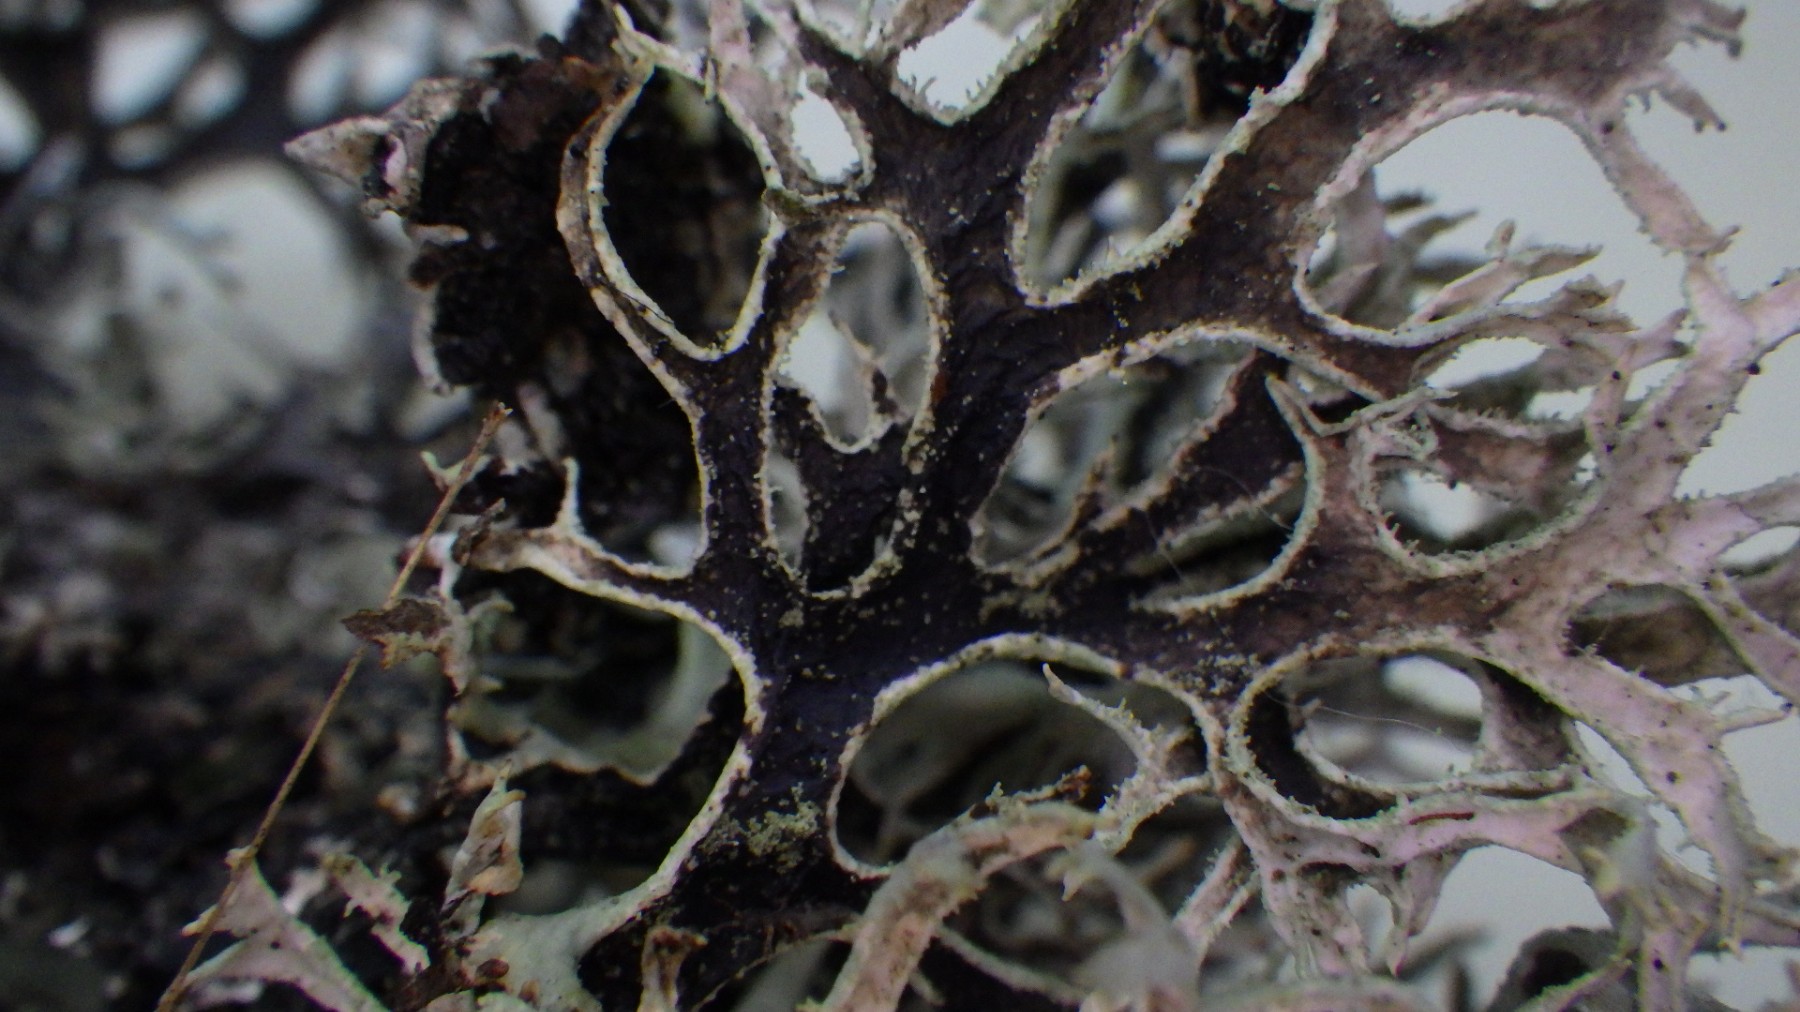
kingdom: Fungi
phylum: Ascomycota
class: Lecanoromycetes
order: Lecanorales
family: Parmeliaceae
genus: Pseudevernia
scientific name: Pseudevernia furfuracea
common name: grå fyrrelav
